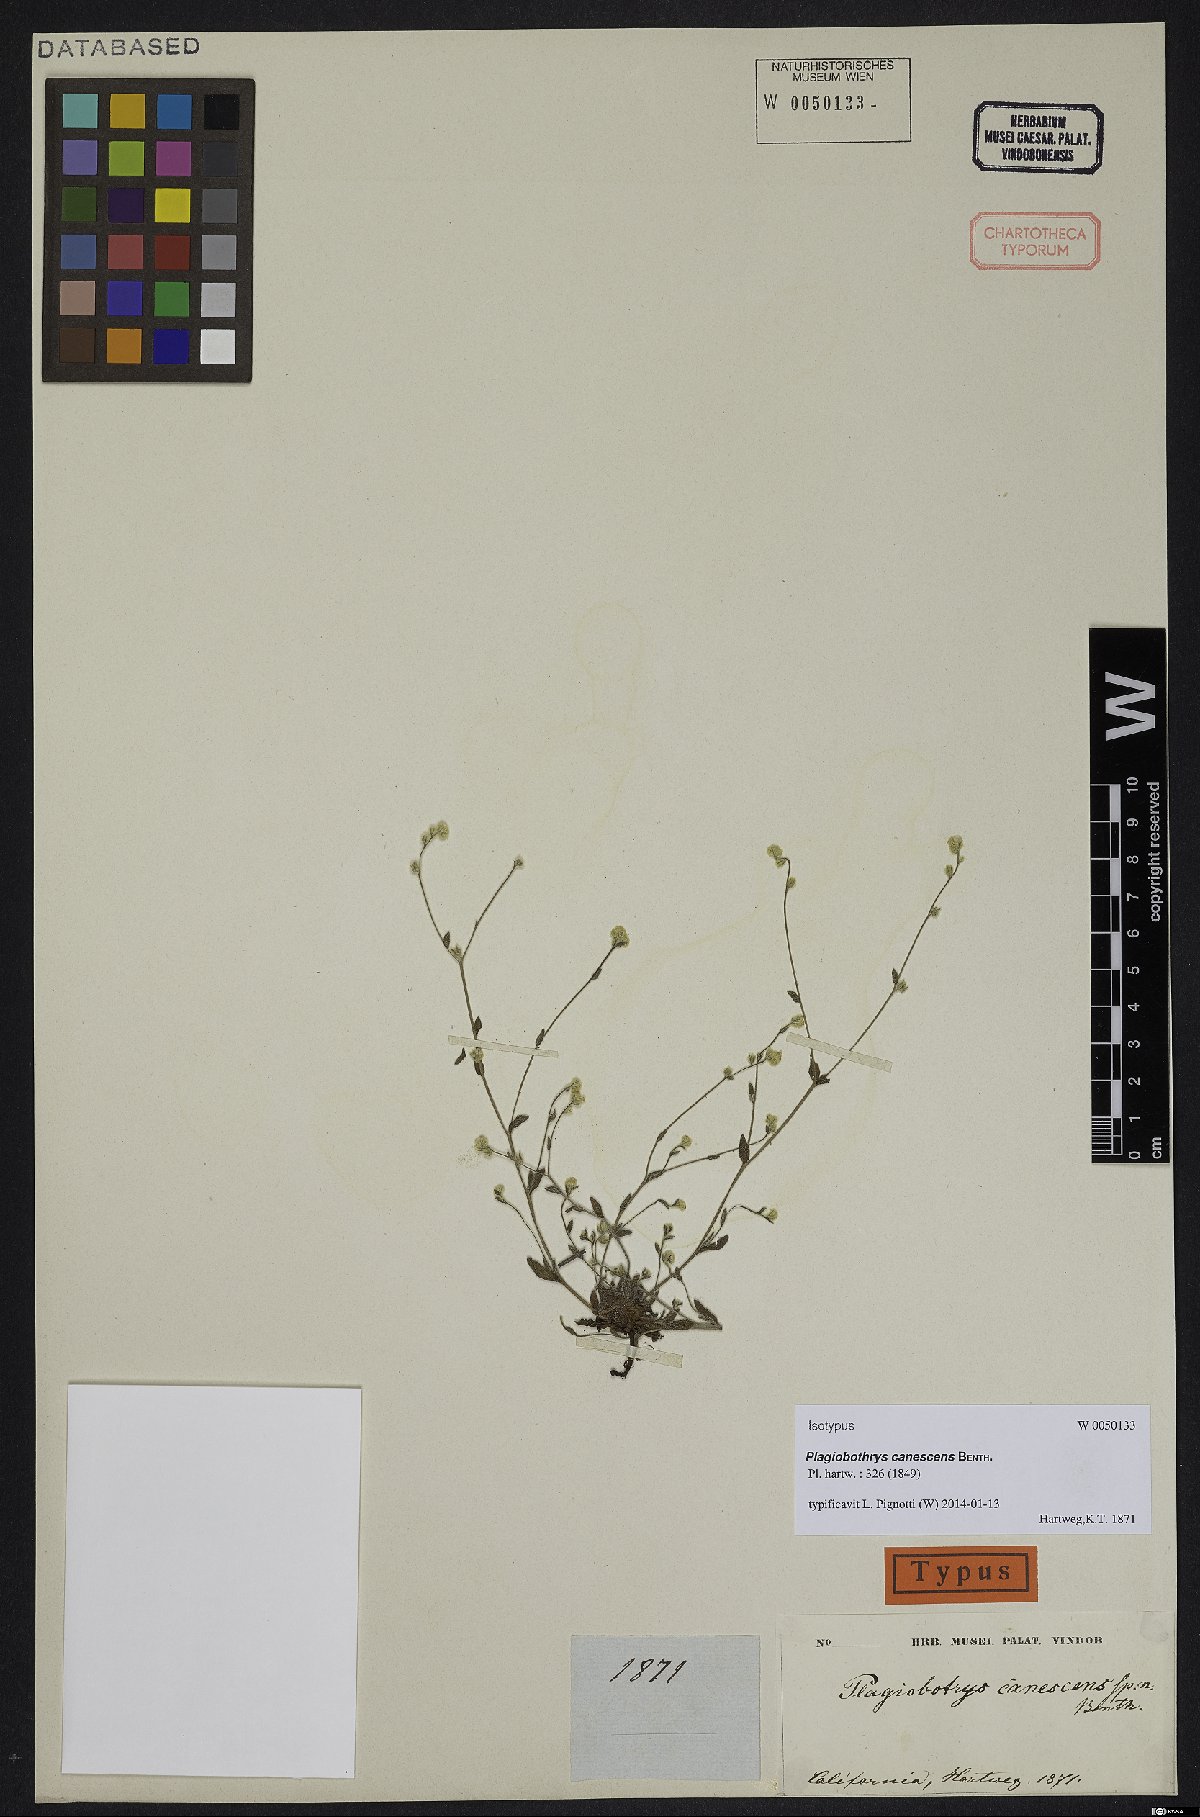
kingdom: Plantae
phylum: Tracheophyta
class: Magnoliopsida
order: Boraginales
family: Boraginaceae
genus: Plagiobothrys
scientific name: Plagiobothrys canescens
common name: Valley popcorn-flower
